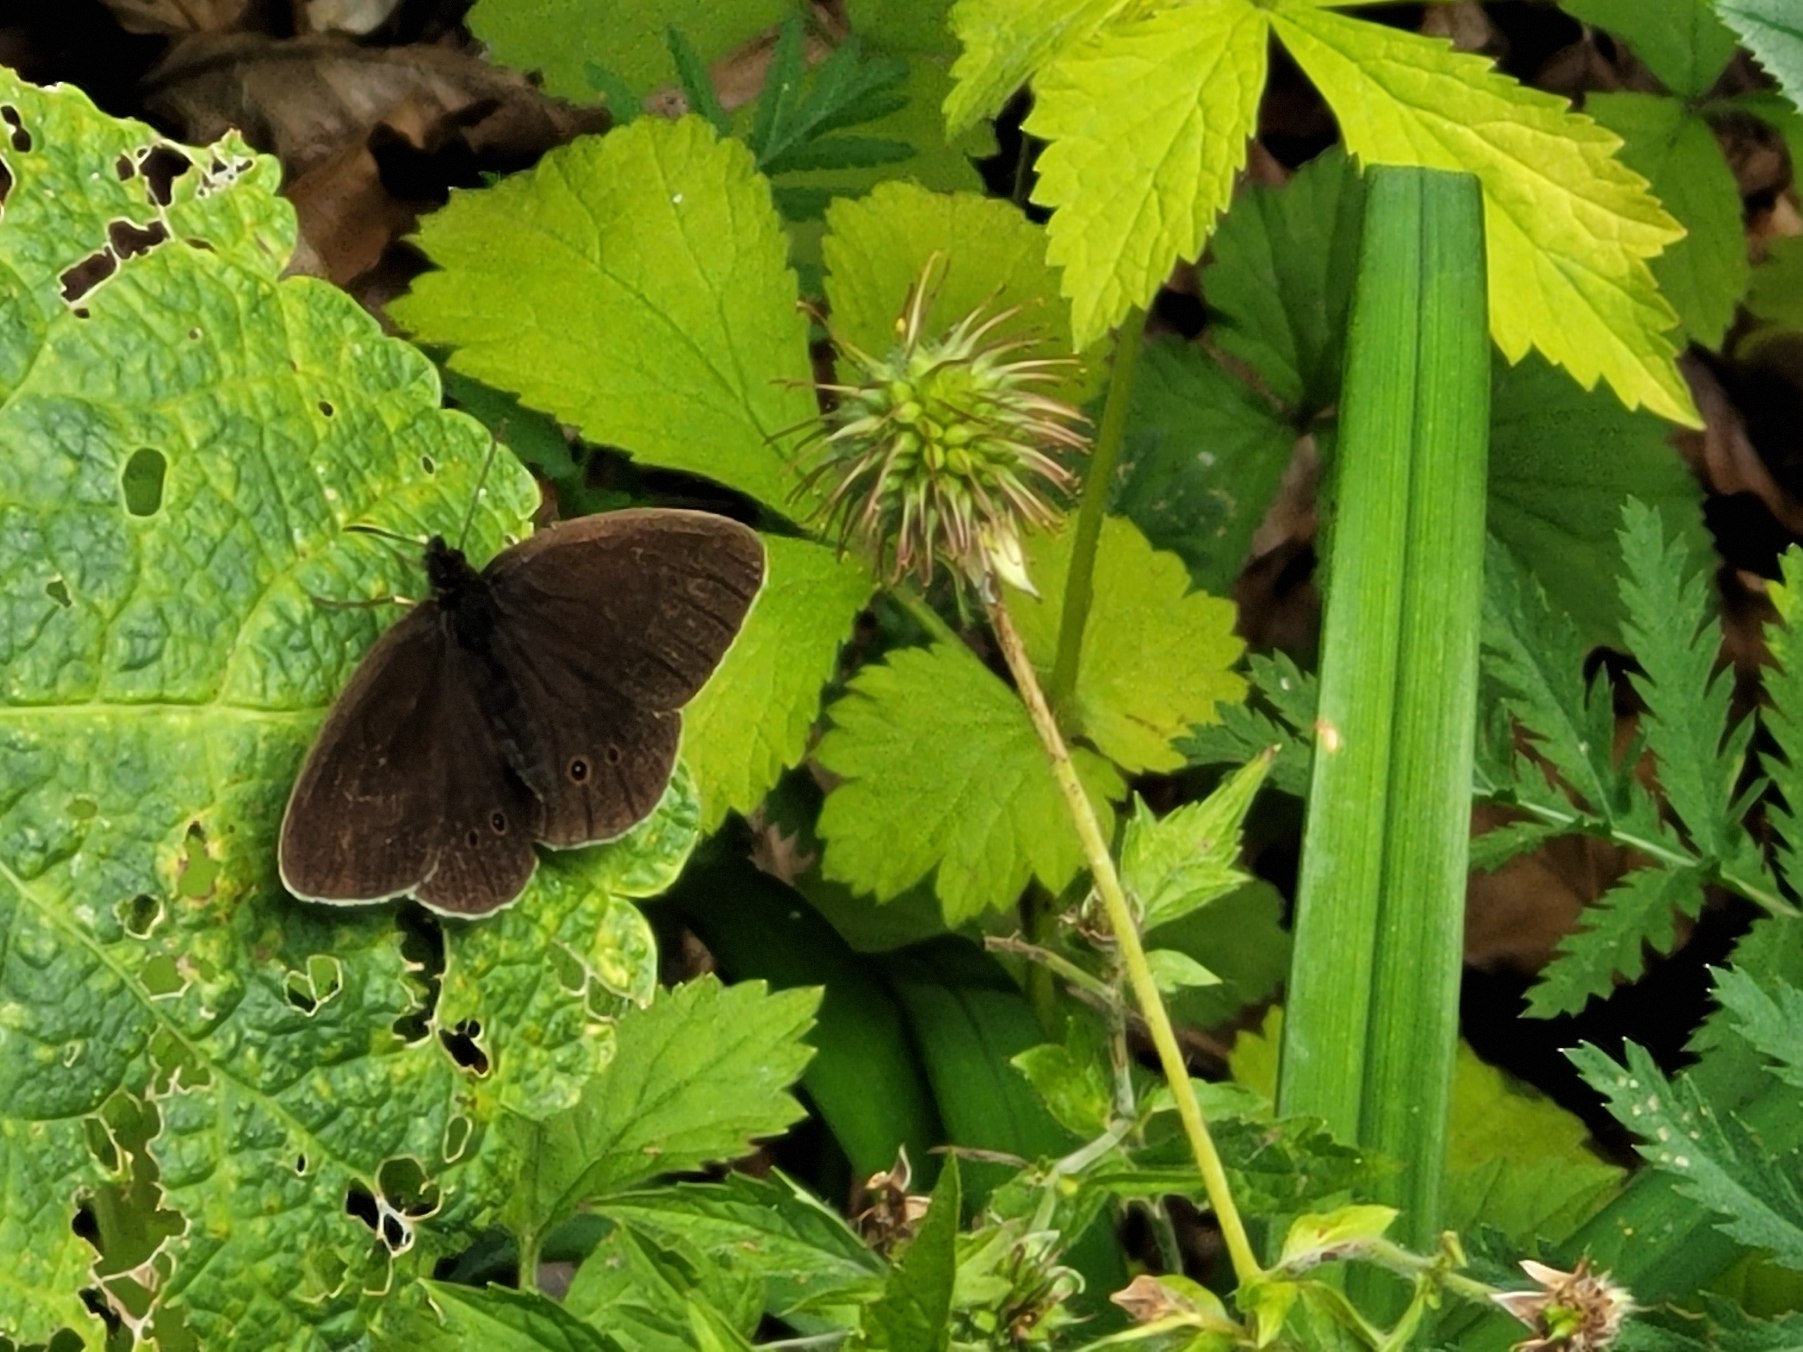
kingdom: Animalia
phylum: Arthropoda
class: Insecta
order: Lepidoptera
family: Nymphalidae
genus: Aphantopus
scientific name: Aphantopus hyperantus
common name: Engrandøje
